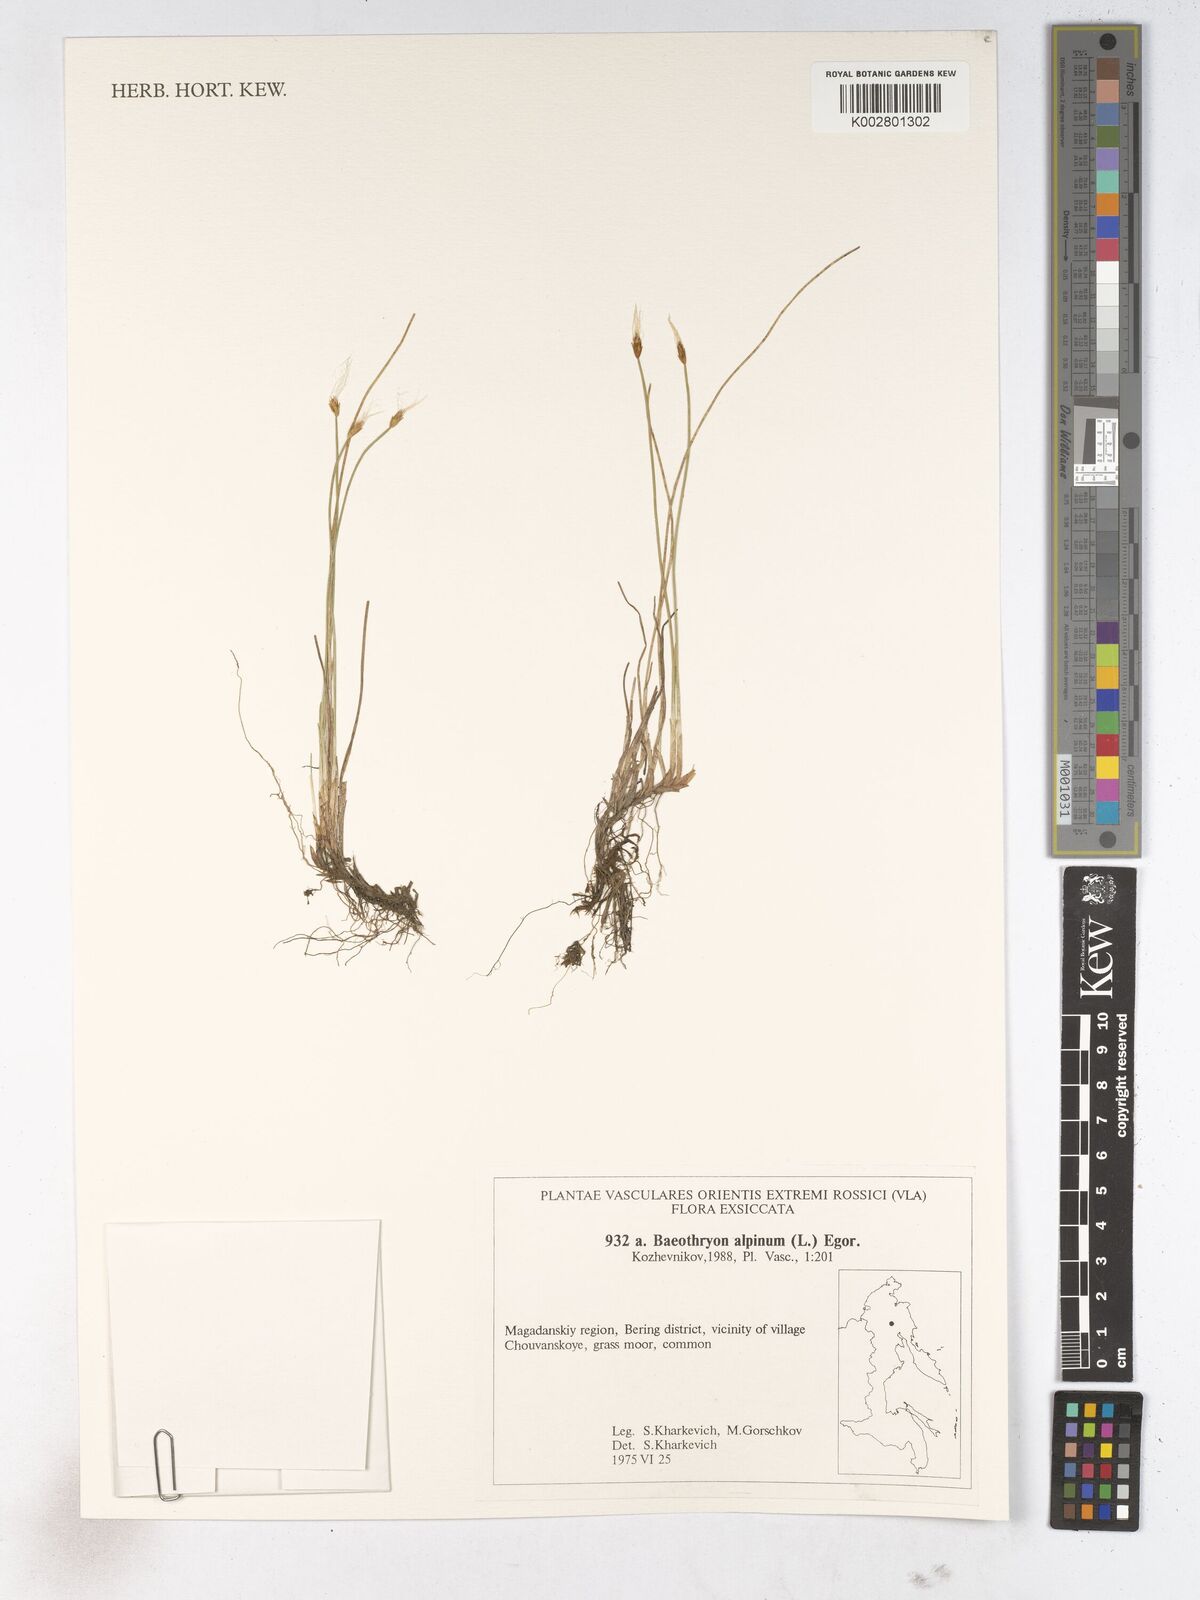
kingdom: Plantae
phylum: Tracheophyta
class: Liliopsida
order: Poales
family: Cyperaceae
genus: Trichophorum
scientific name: Trichophorum alpinum
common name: Alpine bulrush
